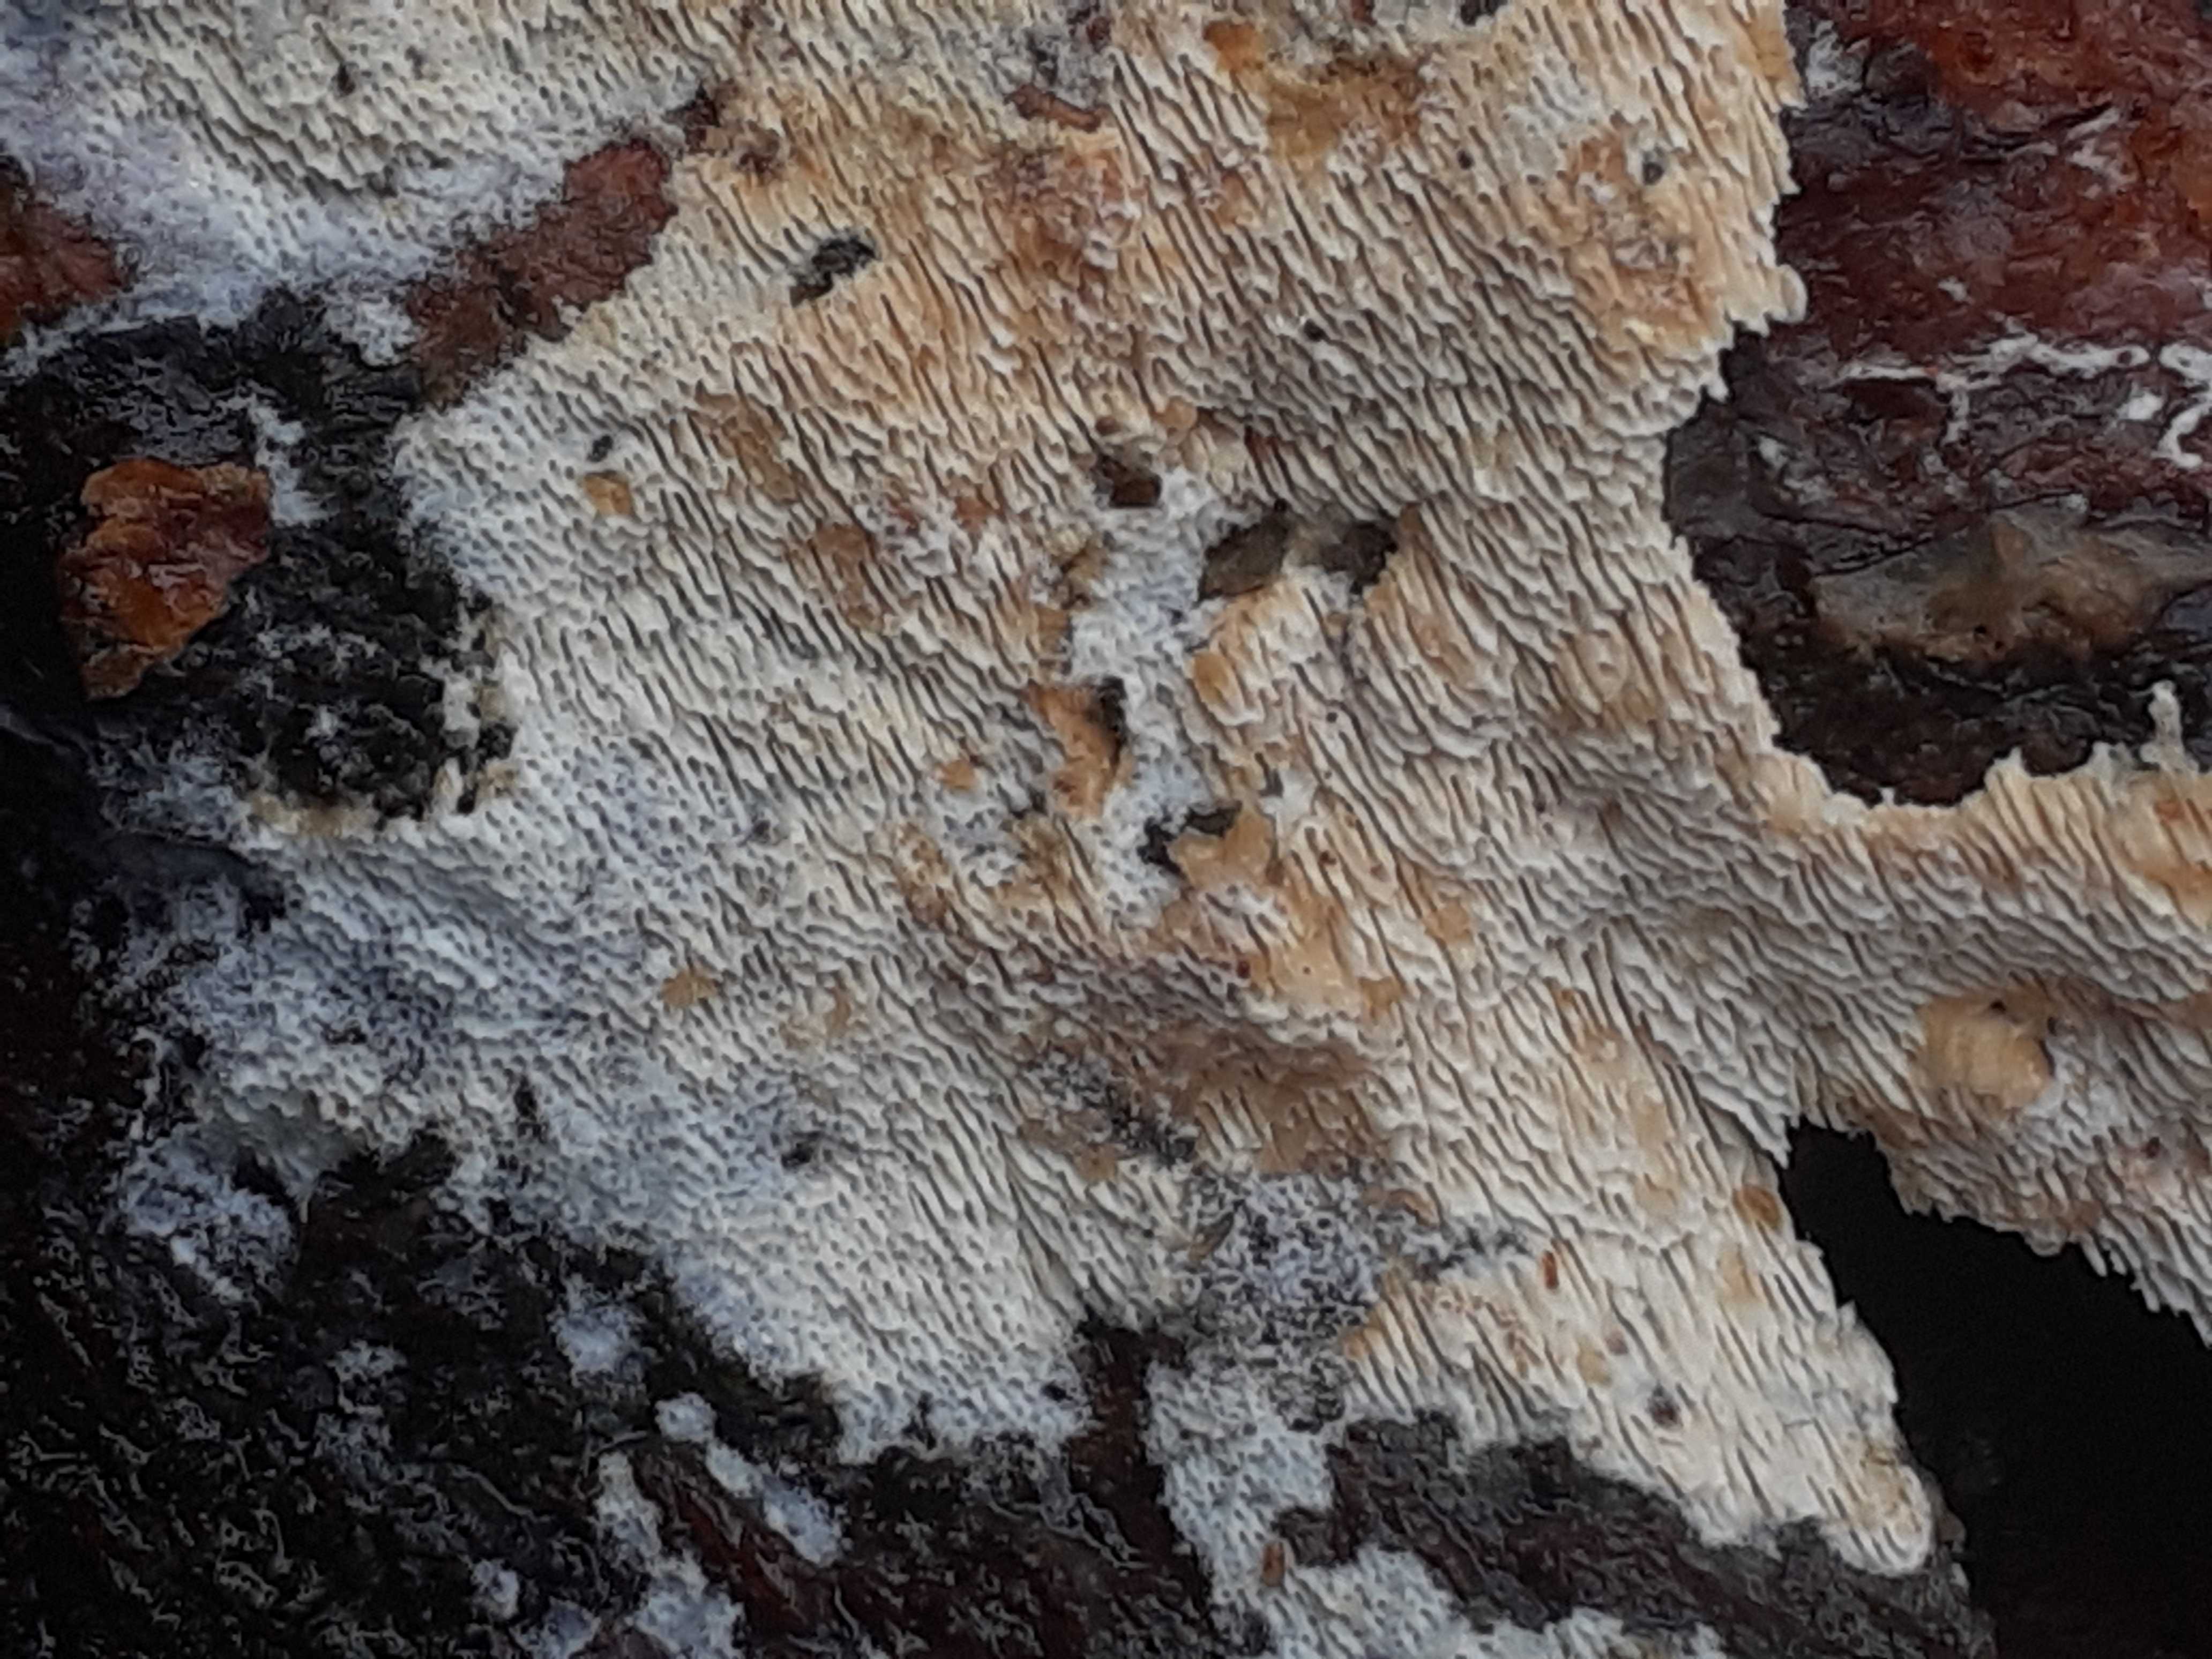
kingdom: Fungi
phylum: Basidiomycota
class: Agaricomycetes
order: Hymenochaetales
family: Schizoporaceae
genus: Schizopora
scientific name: Schizopora paradoxa
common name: hvid tandsvamp
